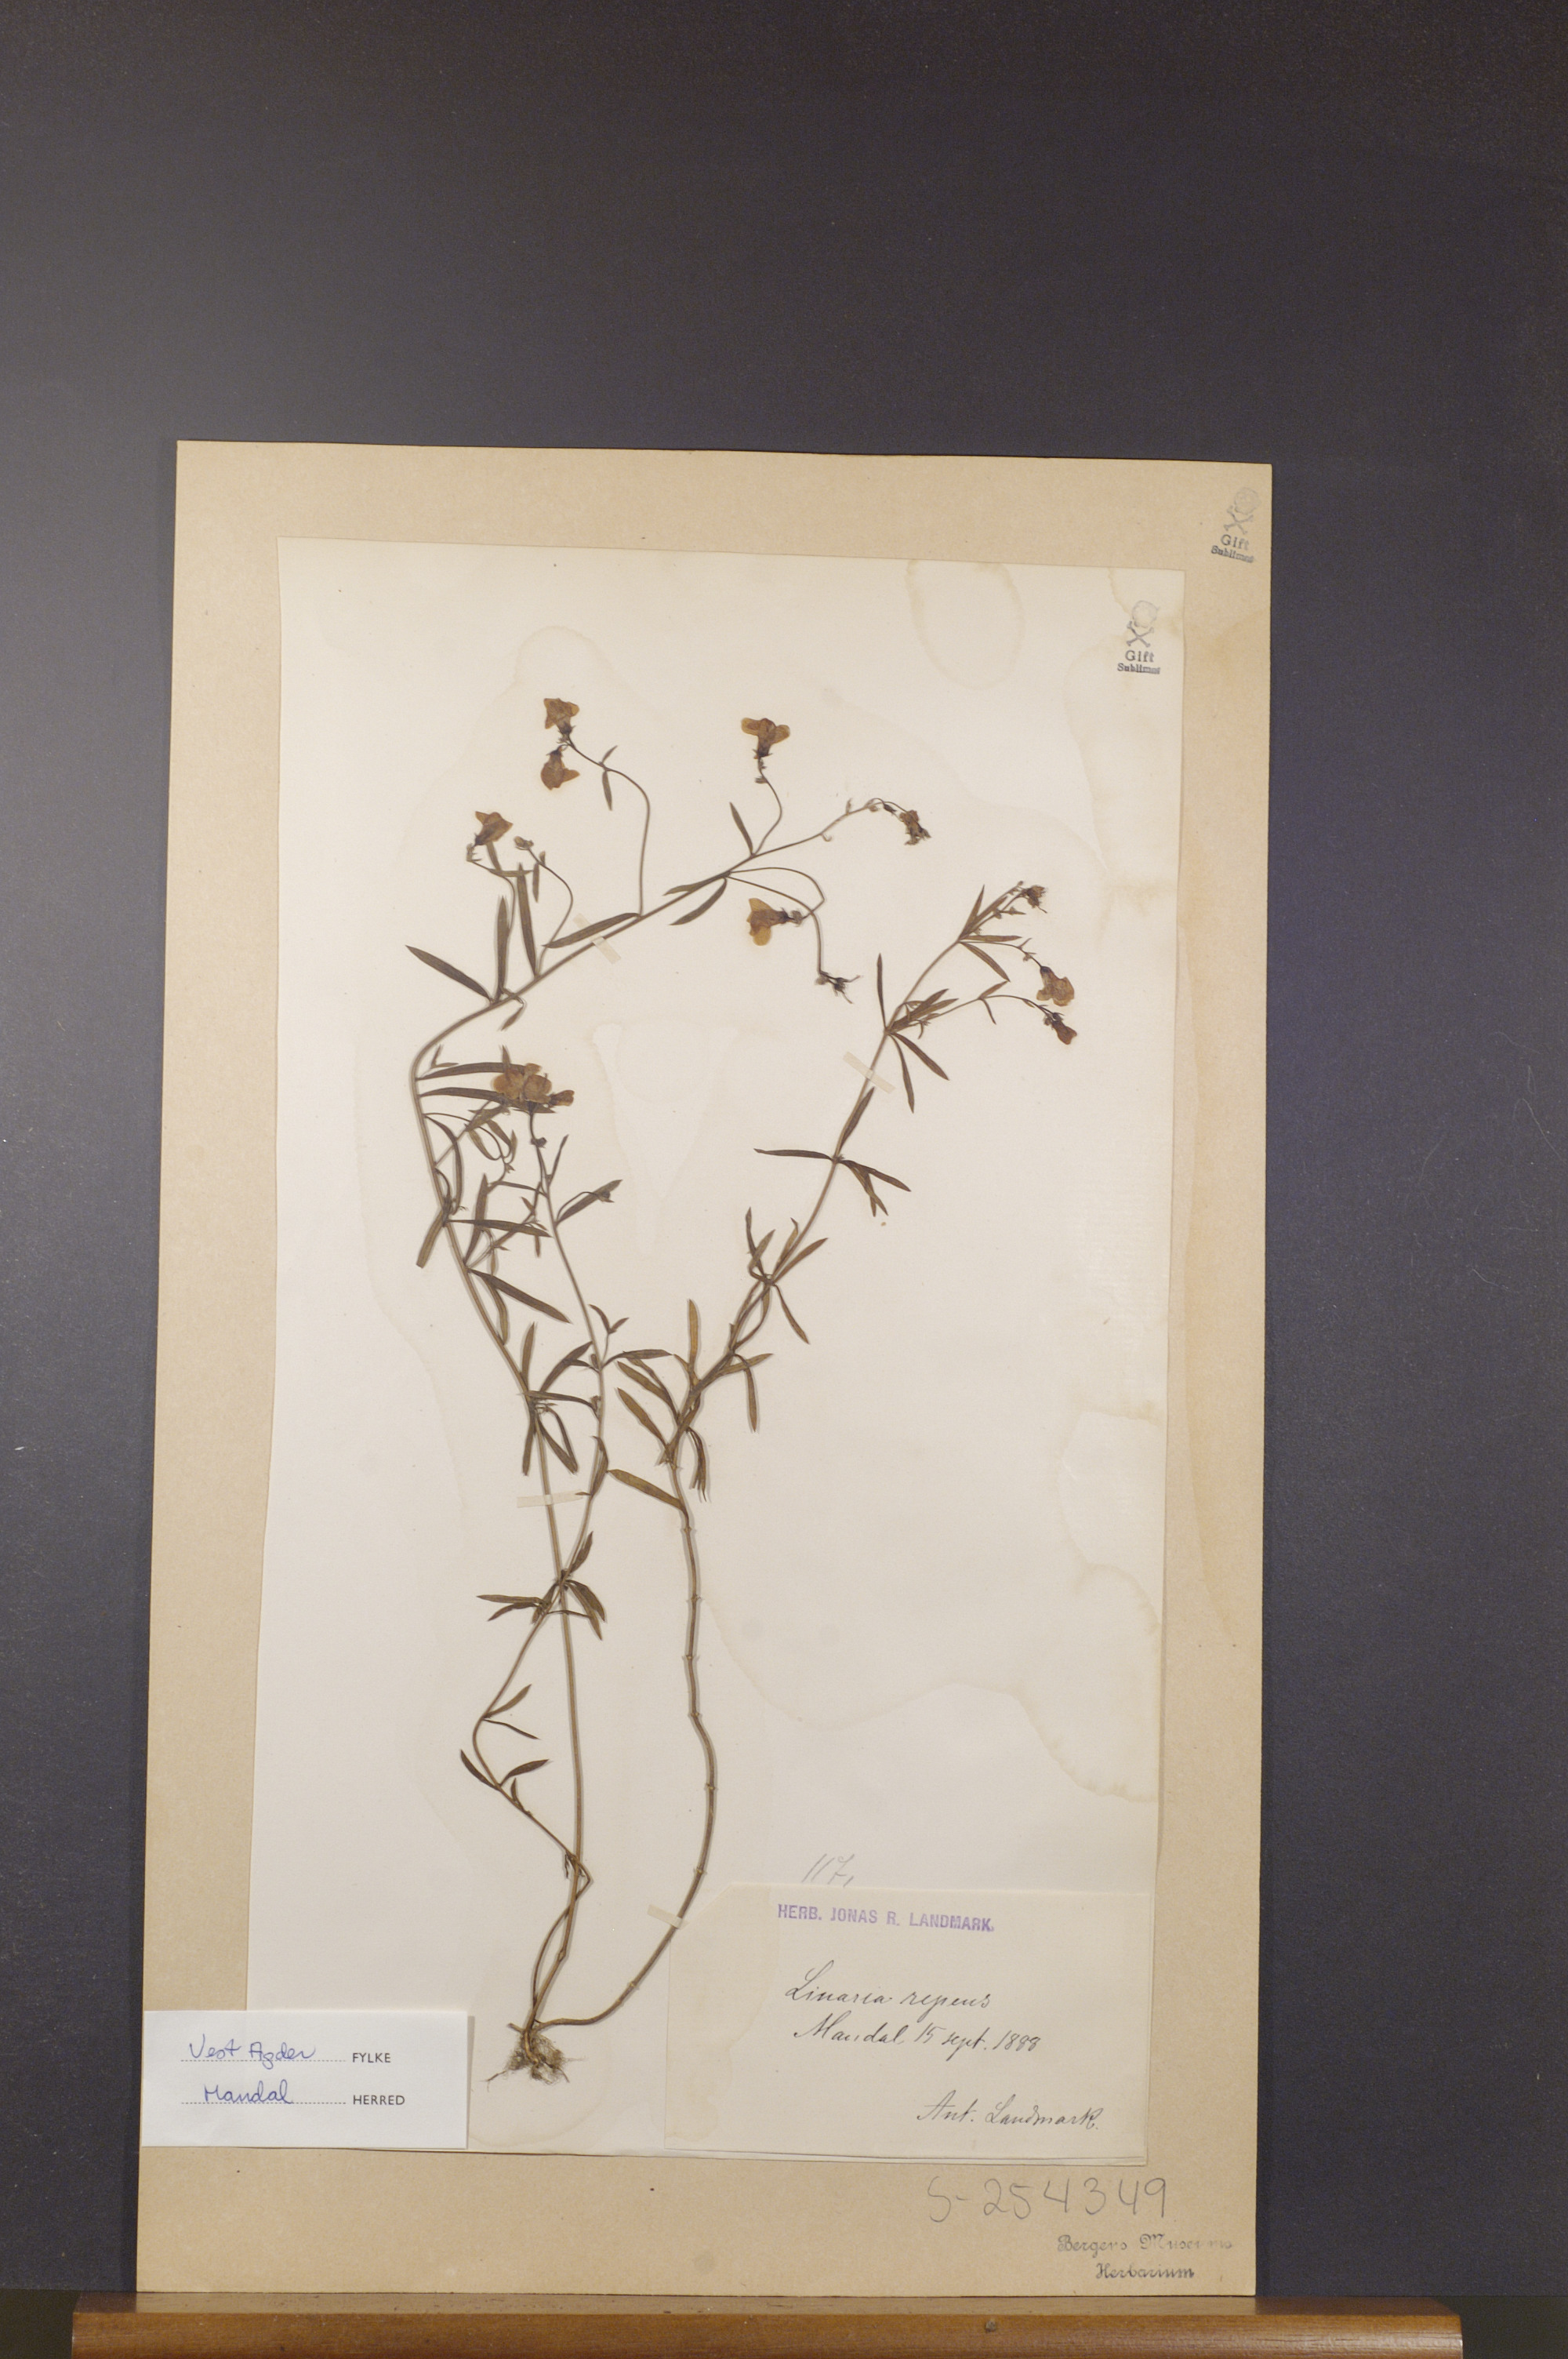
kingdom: Plantae
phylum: Tracheophyta
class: Magnoliopsida
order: Lamiales
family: Plantaginaceae
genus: Linaria
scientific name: Linaria repens
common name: Pale toadflax
